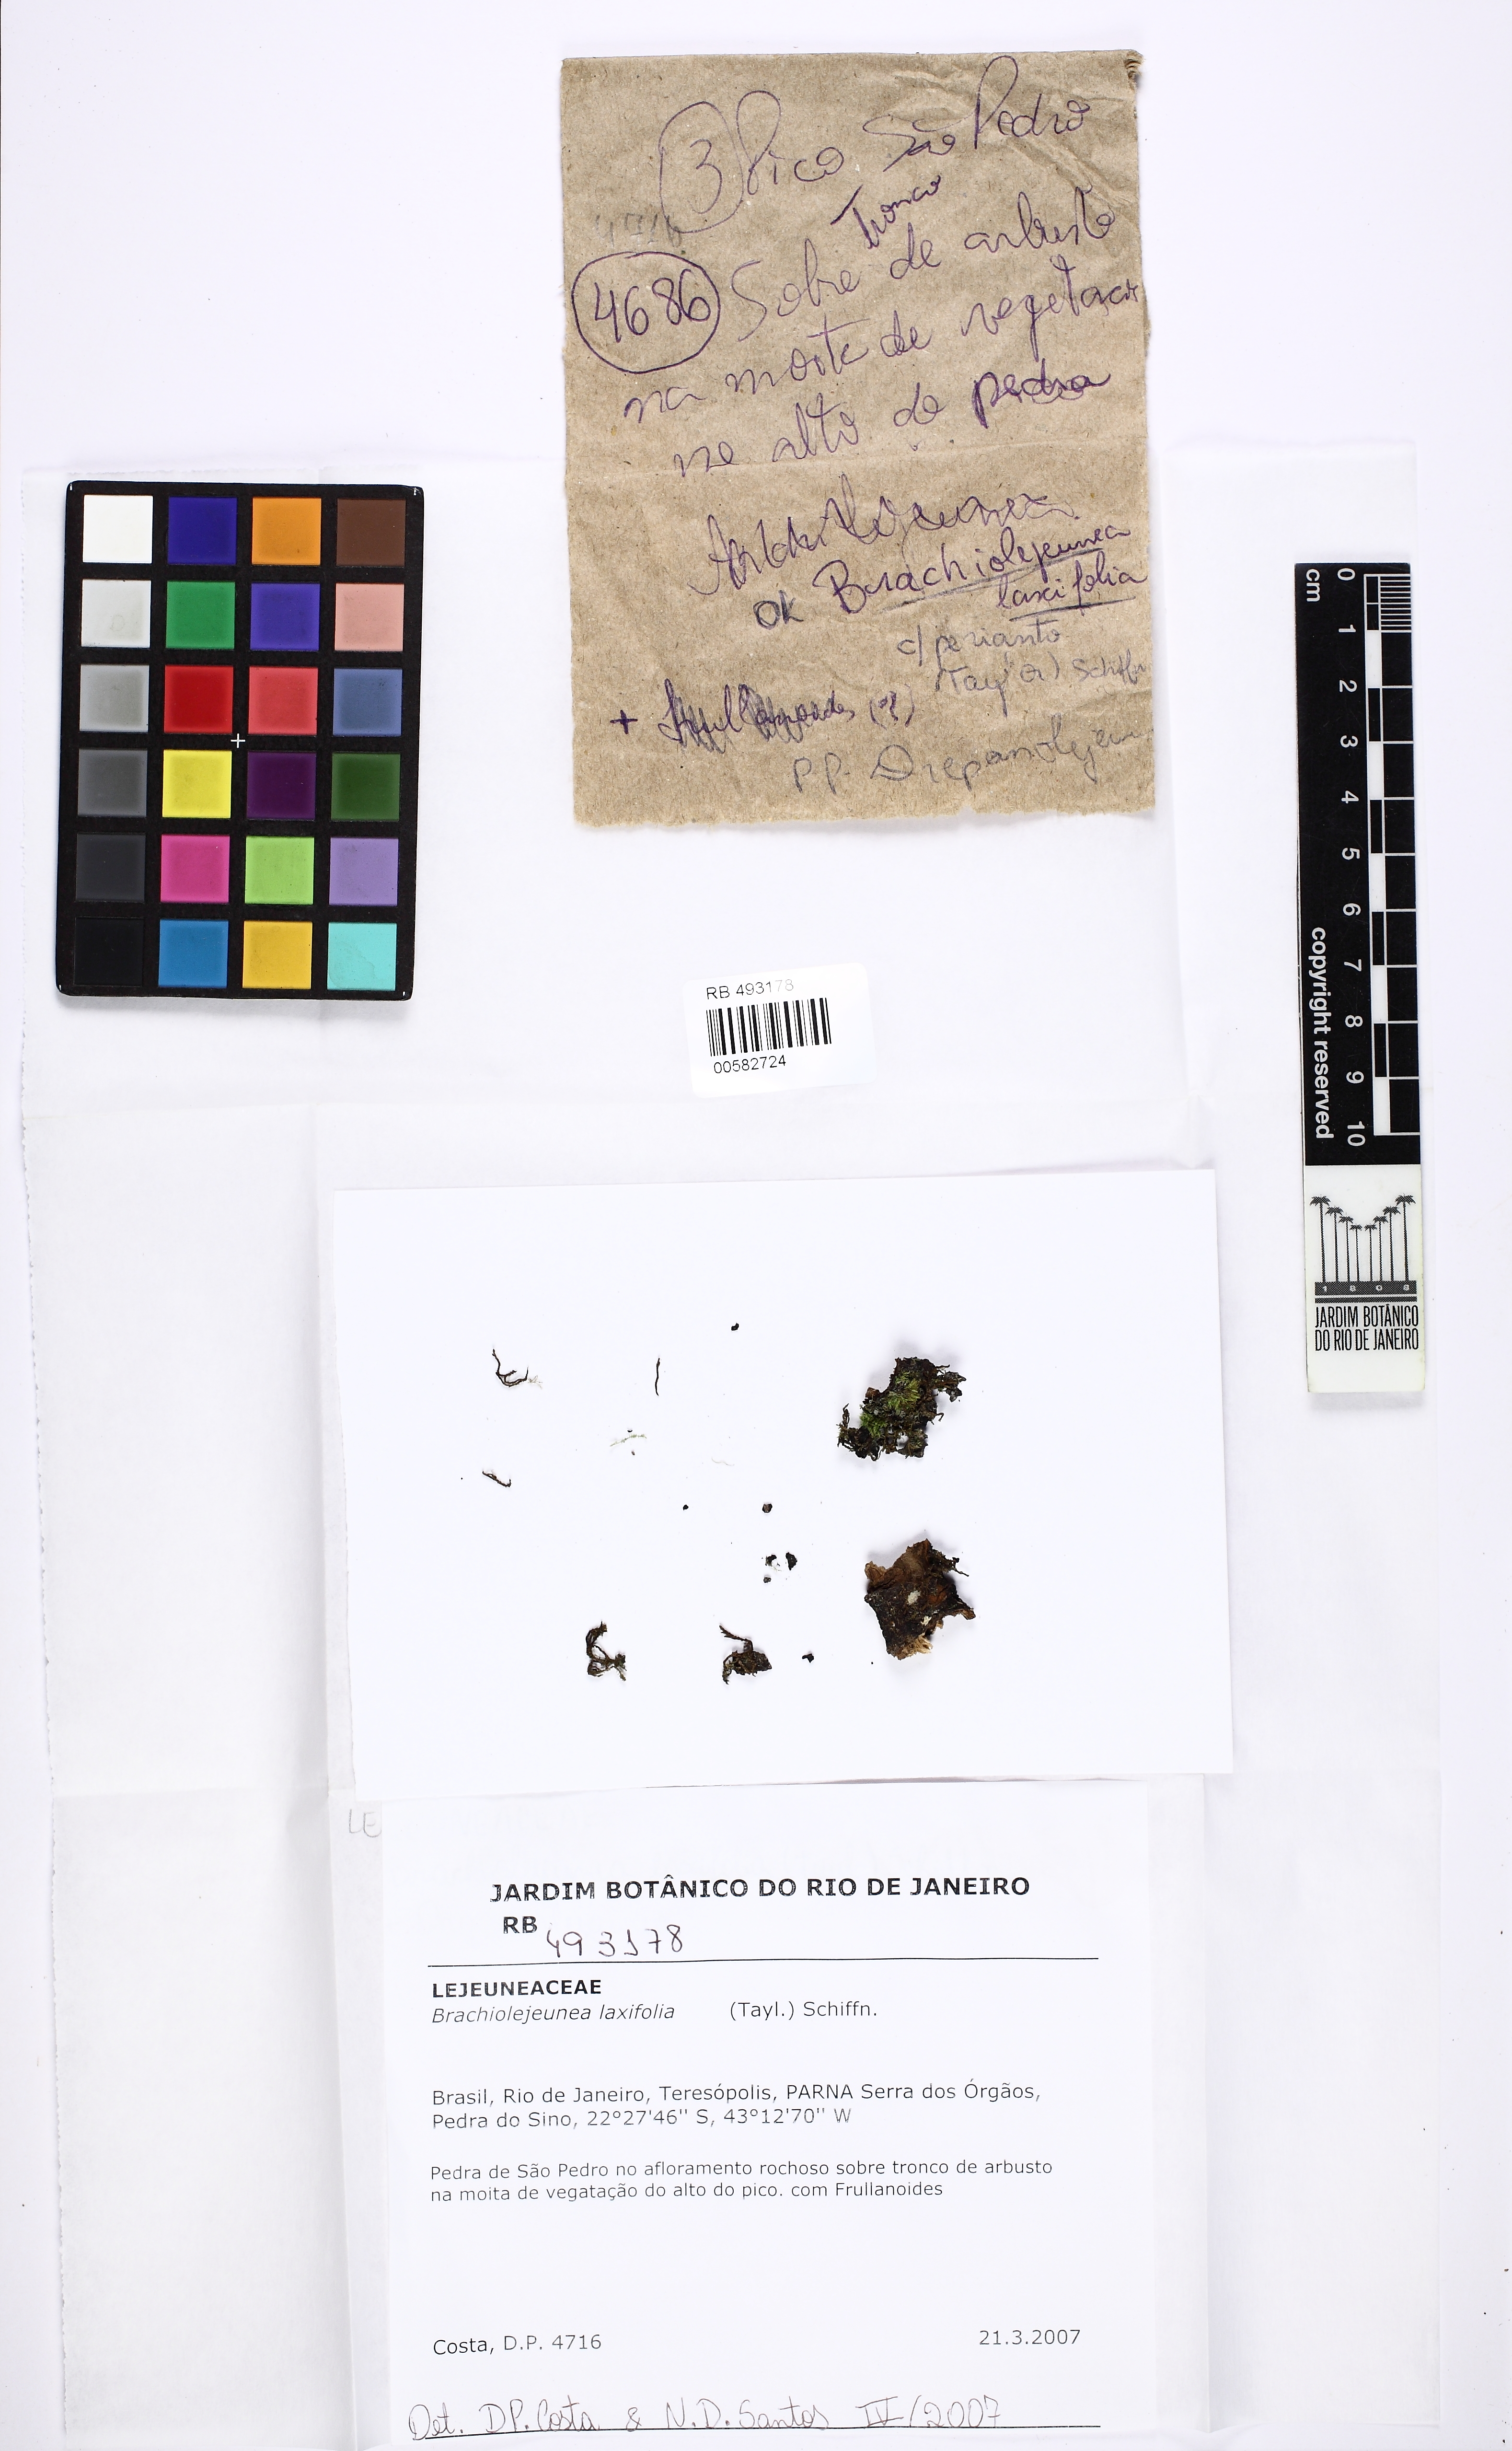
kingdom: Plantae
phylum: Marchantiophyta
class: Jungermanniopsida
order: Porellales
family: Lejeuneaceae
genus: Brachiolejeunea
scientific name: Brachiolejeunea laxifolia
